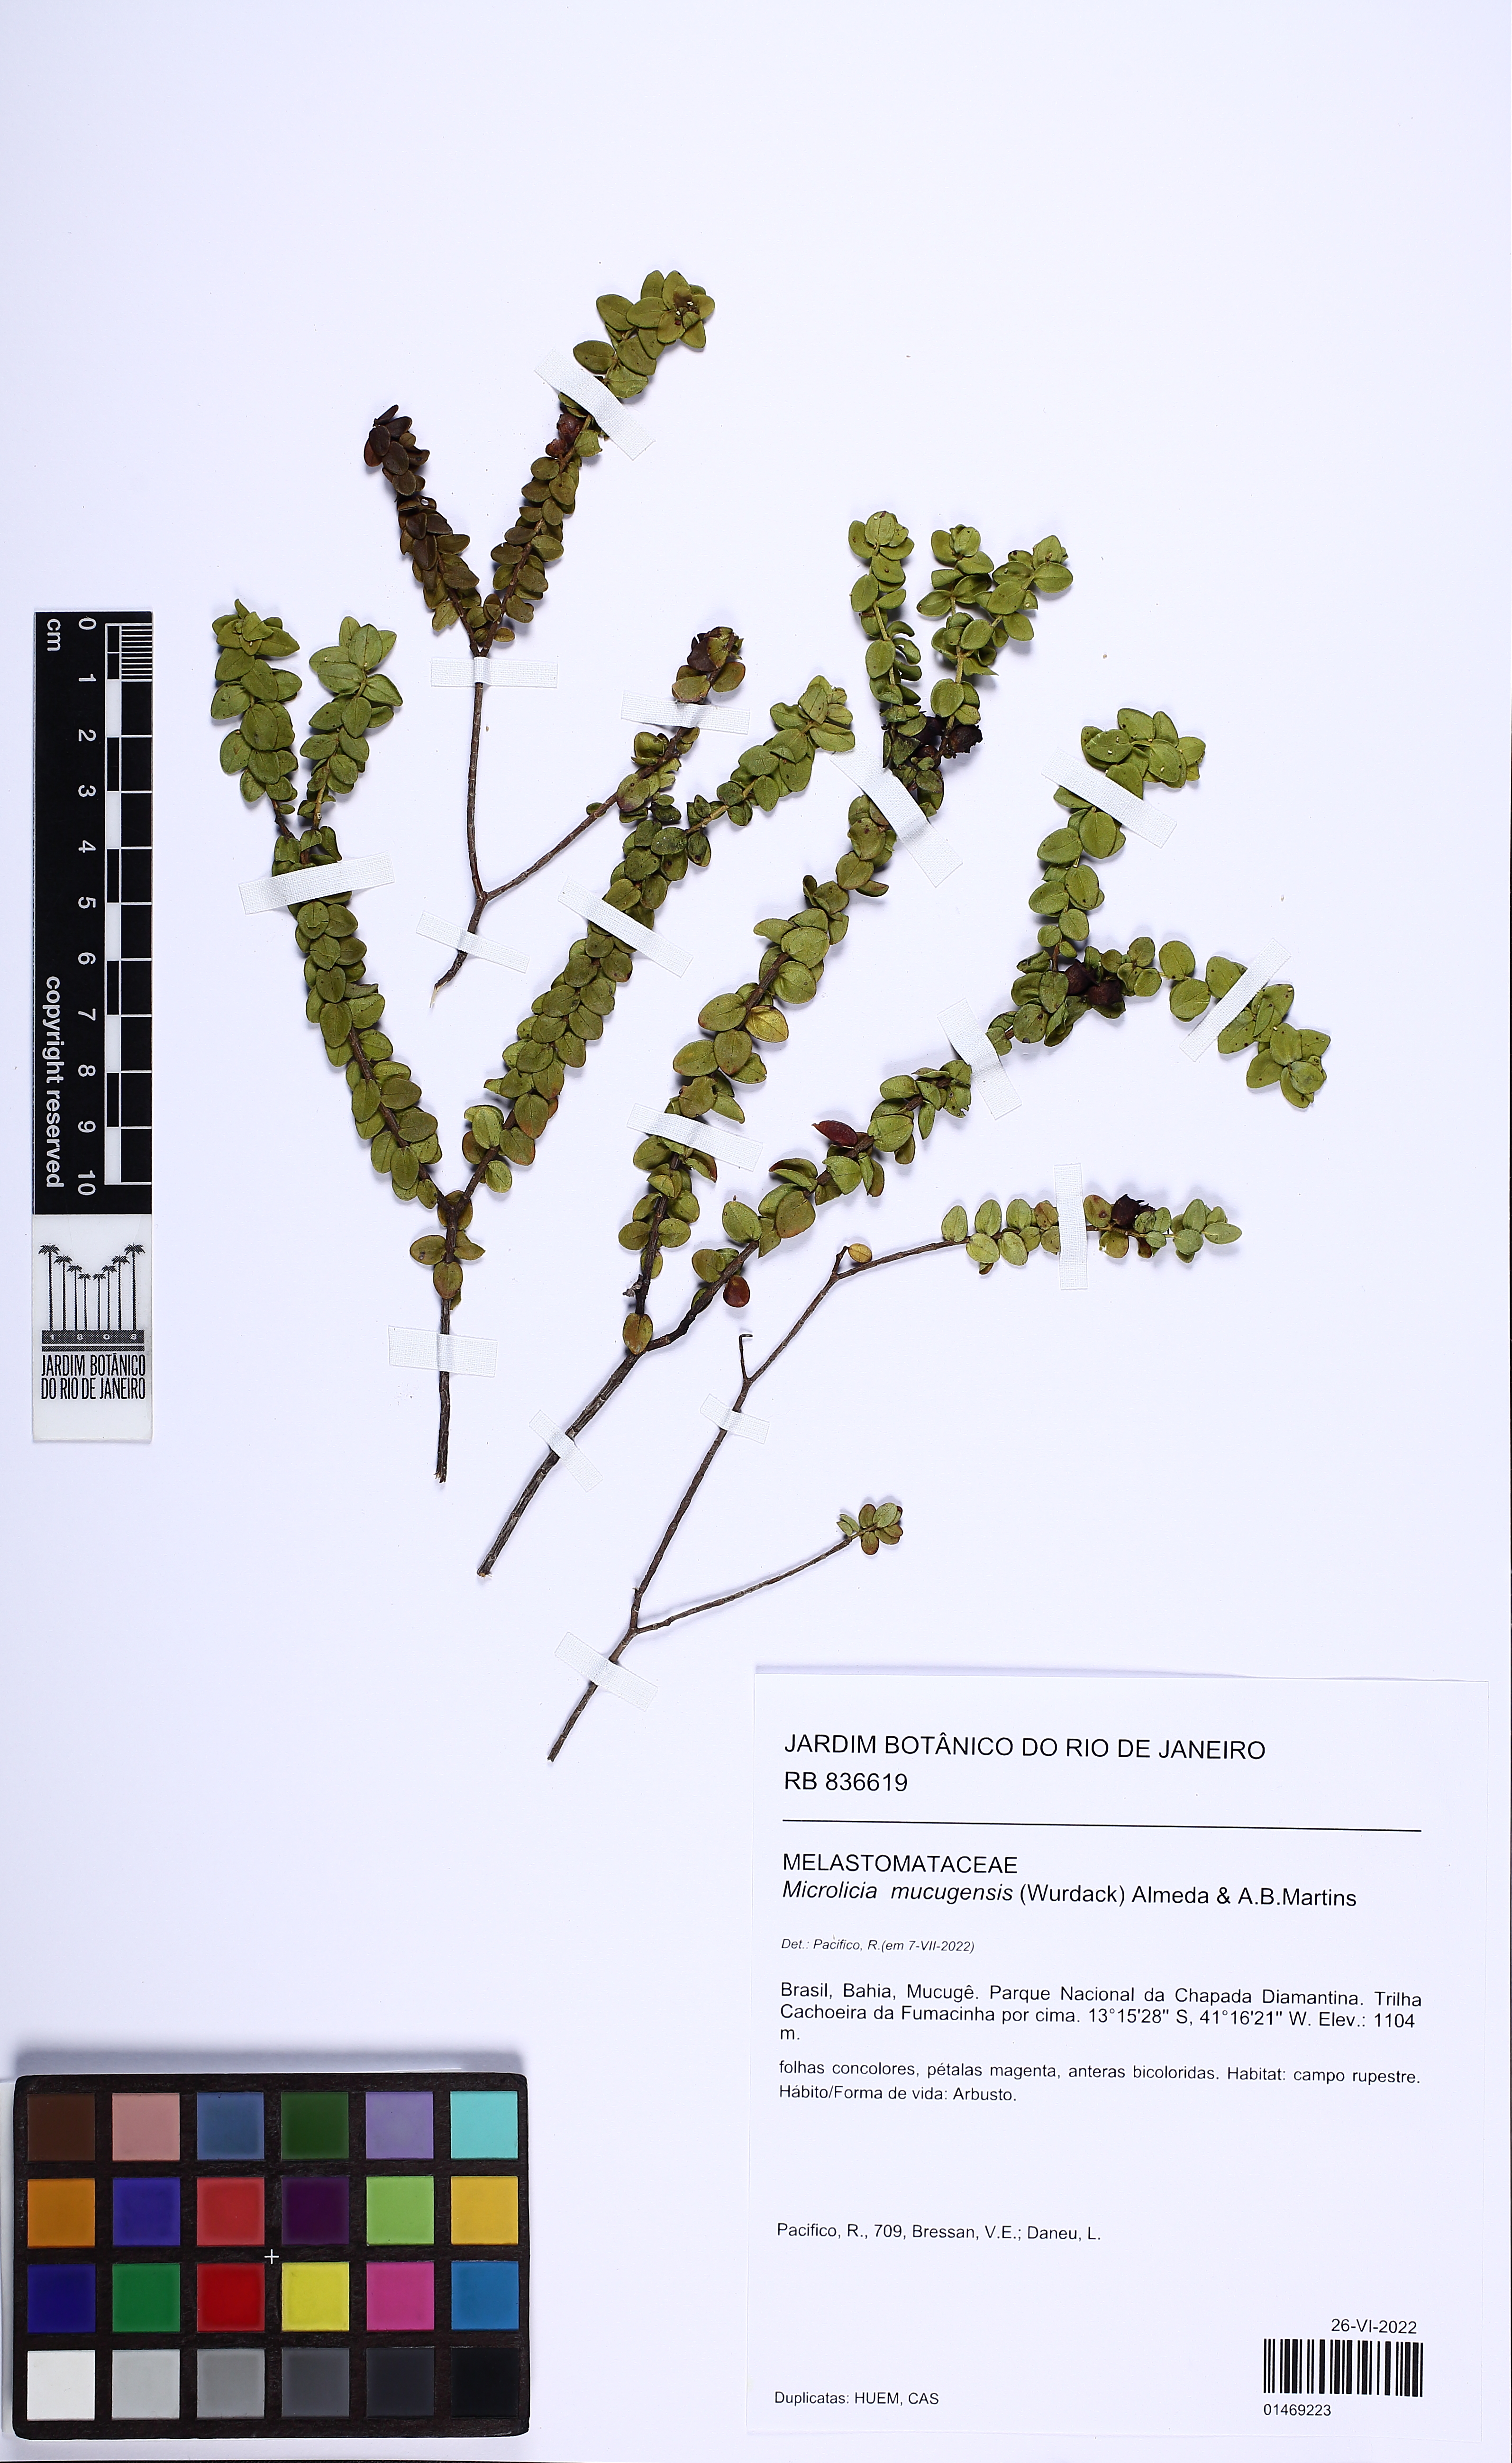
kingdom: Plantae
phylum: Tracheophyta
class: Magnoliopsida
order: Myrtales
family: Melastomataceae
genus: Microlicia
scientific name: Microlicia mucugensis
